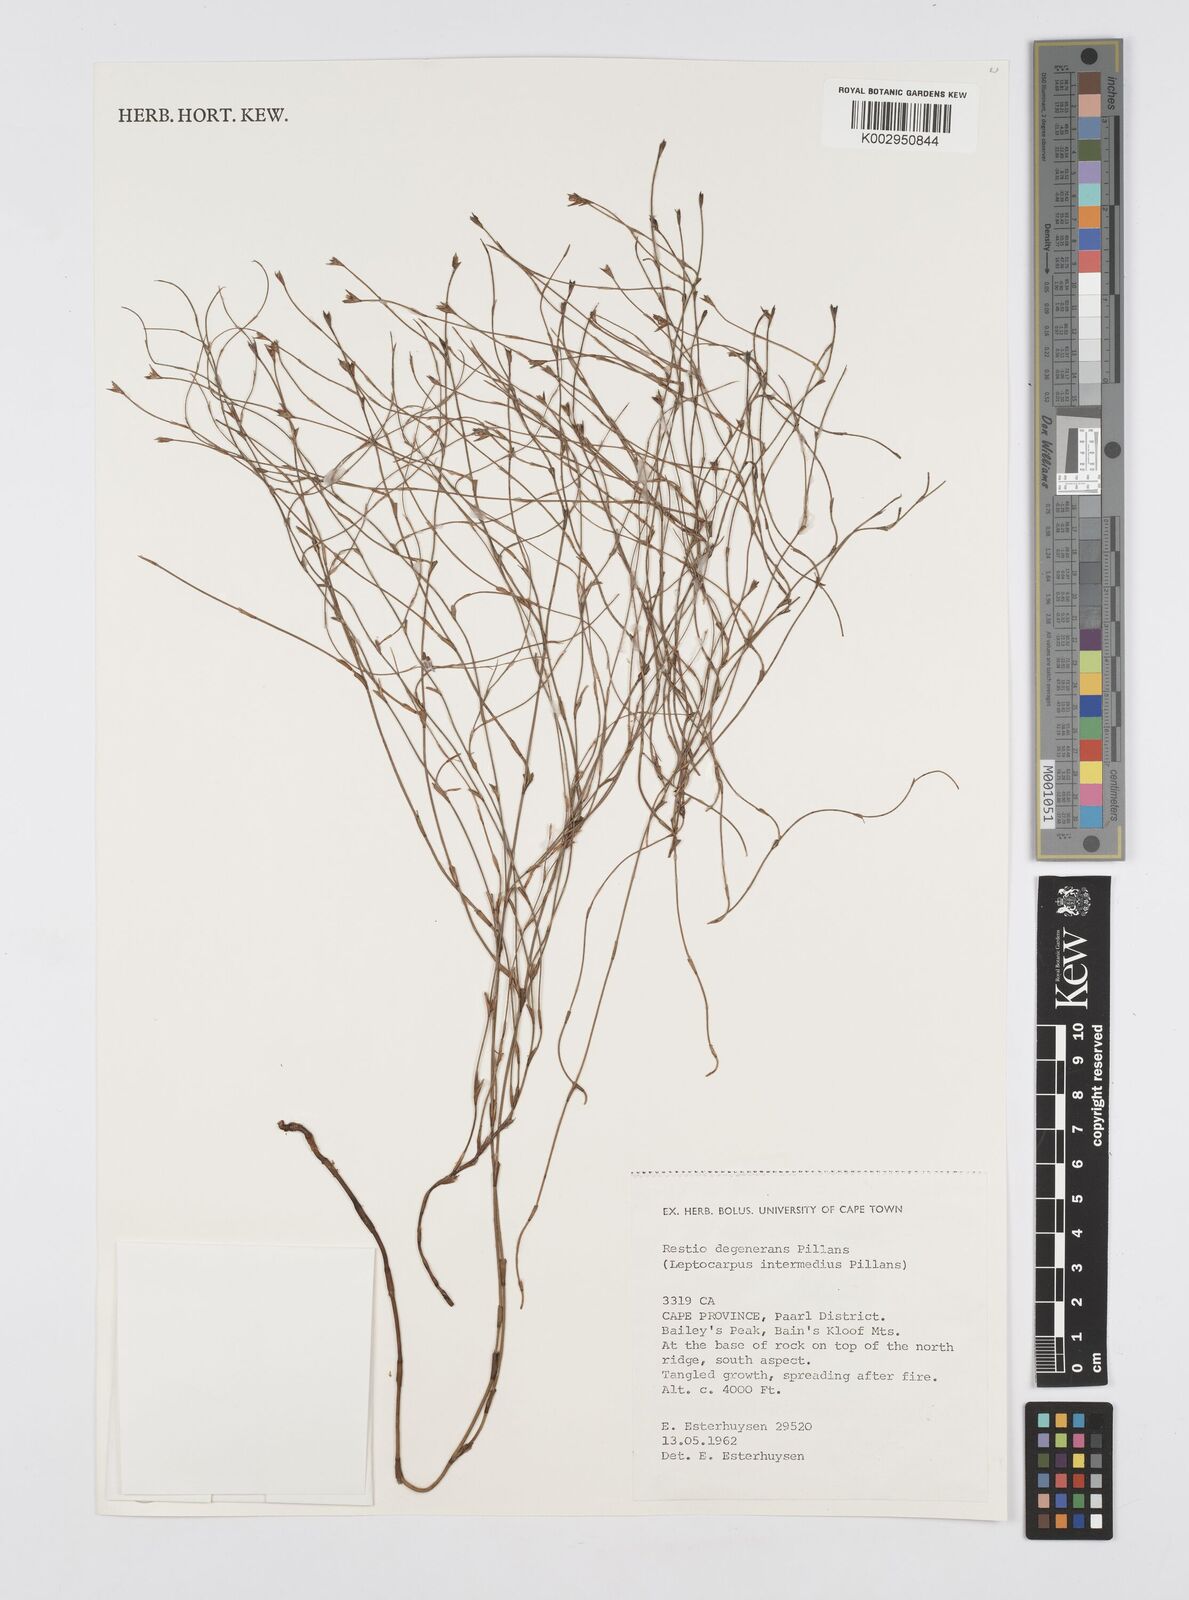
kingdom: Plantae
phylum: Tracheophyta
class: Liliopsida
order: Poales
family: Restionaceae
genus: Restio
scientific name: Restio degenerans
